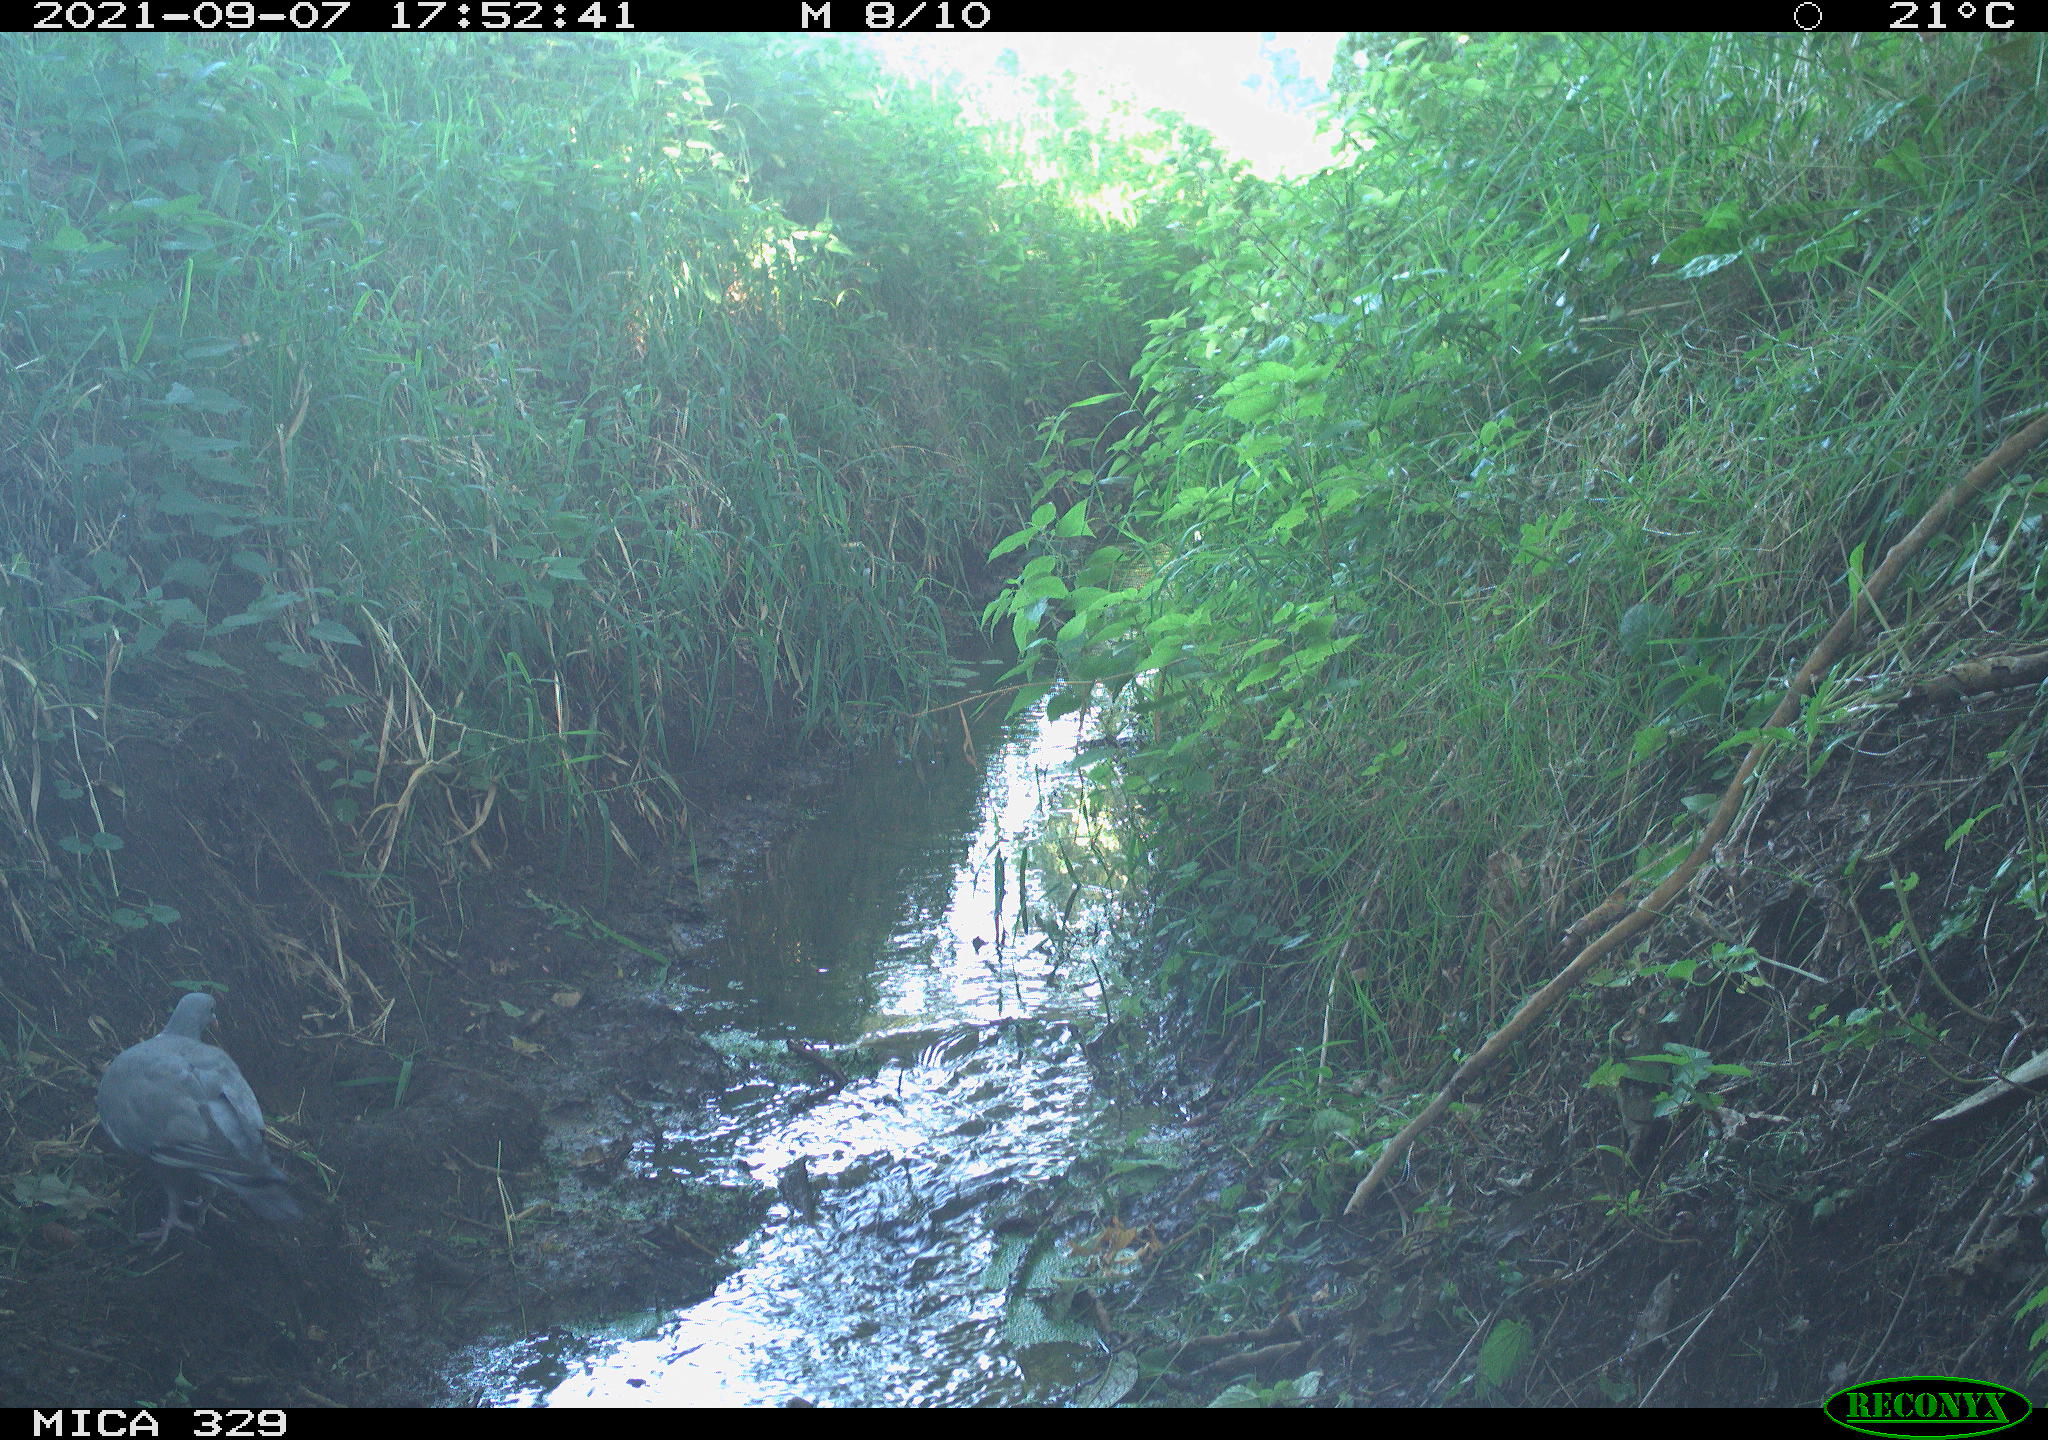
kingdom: Animalia
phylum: Chordata
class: Aves
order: Columbiformes
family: Columbidae
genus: Columba
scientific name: Columba palumbus
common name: Common wood pigeon
